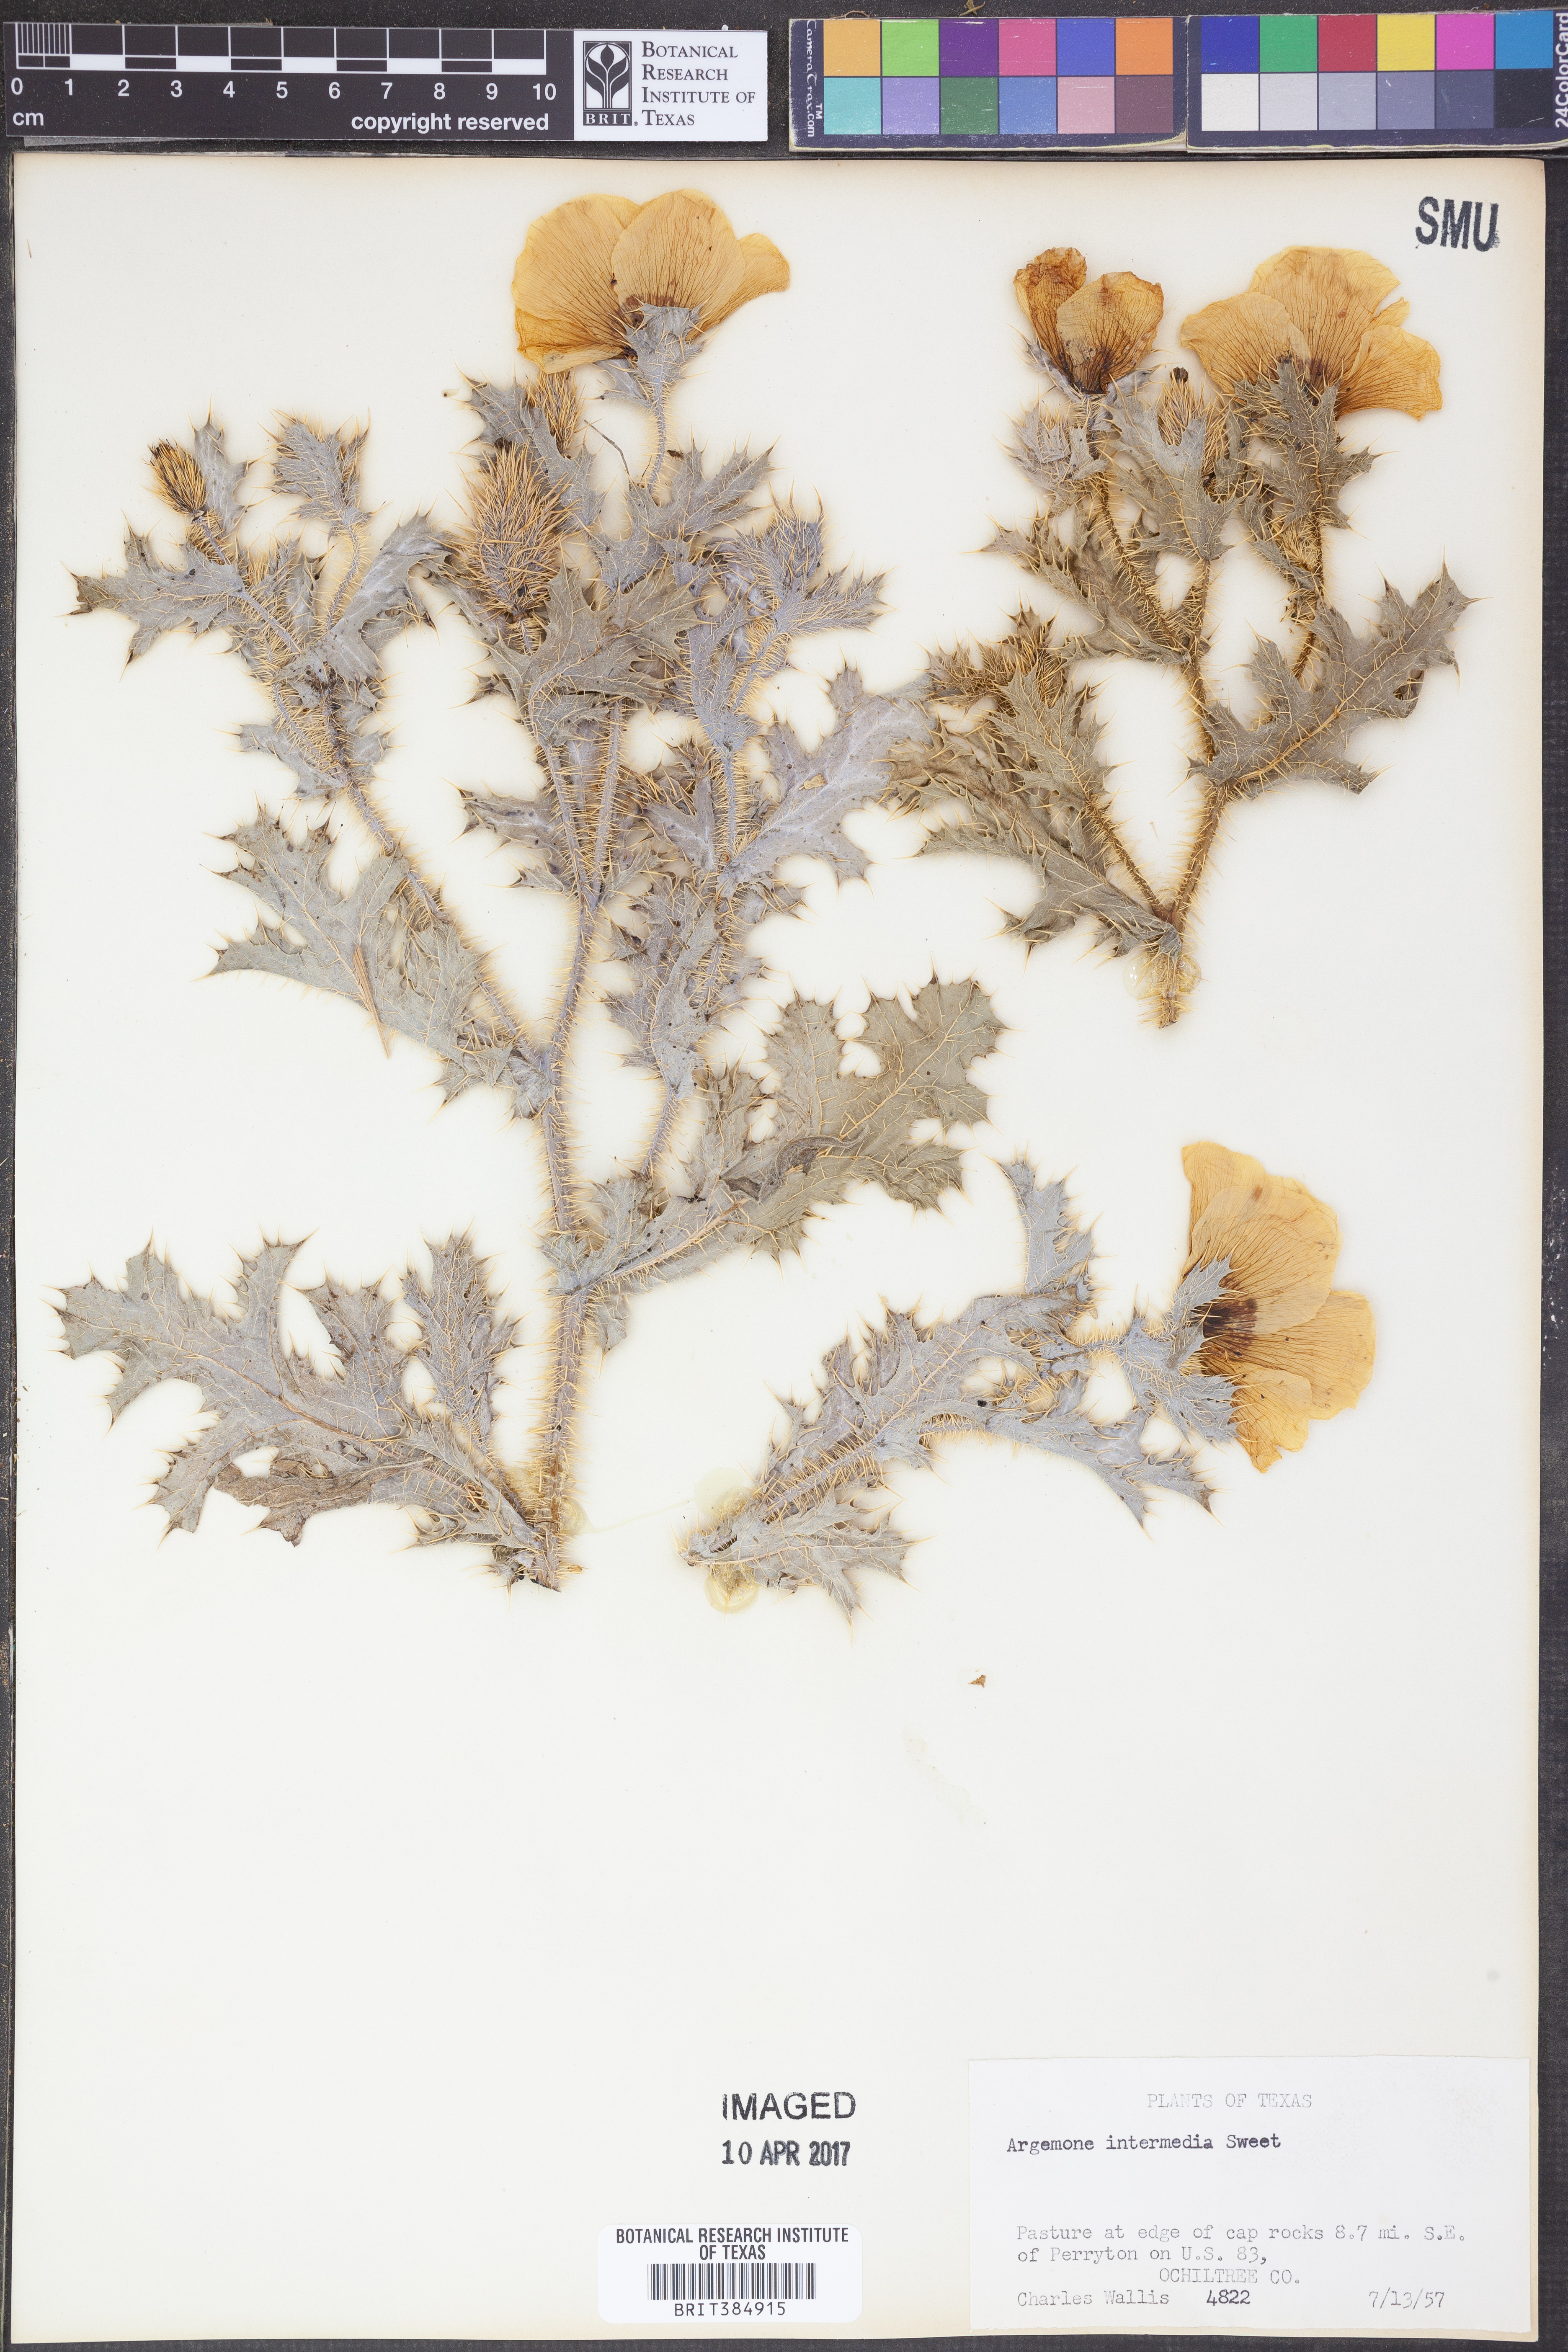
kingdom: Plantae
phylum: Tracheophyta
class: Magnoliopsida
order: Ranunculales
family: Papaveraceae
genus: Argemone
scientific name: Argemone intermedia
